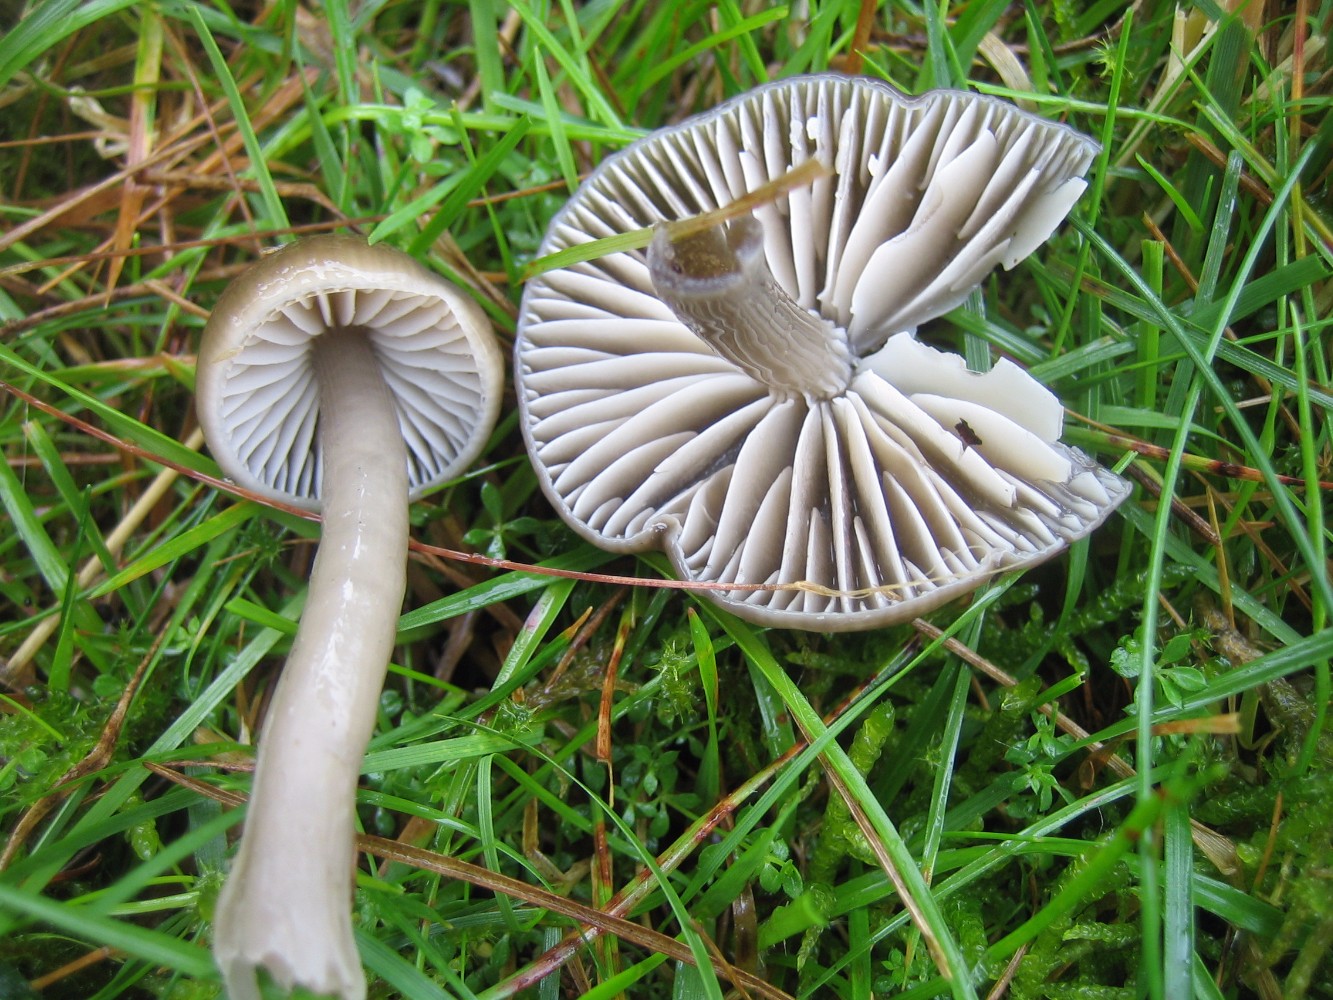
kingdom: Fungi
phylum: Basidiomycota
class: Agaricomycetes
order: Agaricales
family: Hygrophoraceae
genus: Gliophorus
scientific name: Gliophorus irrigatus
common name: slimet vokshat
